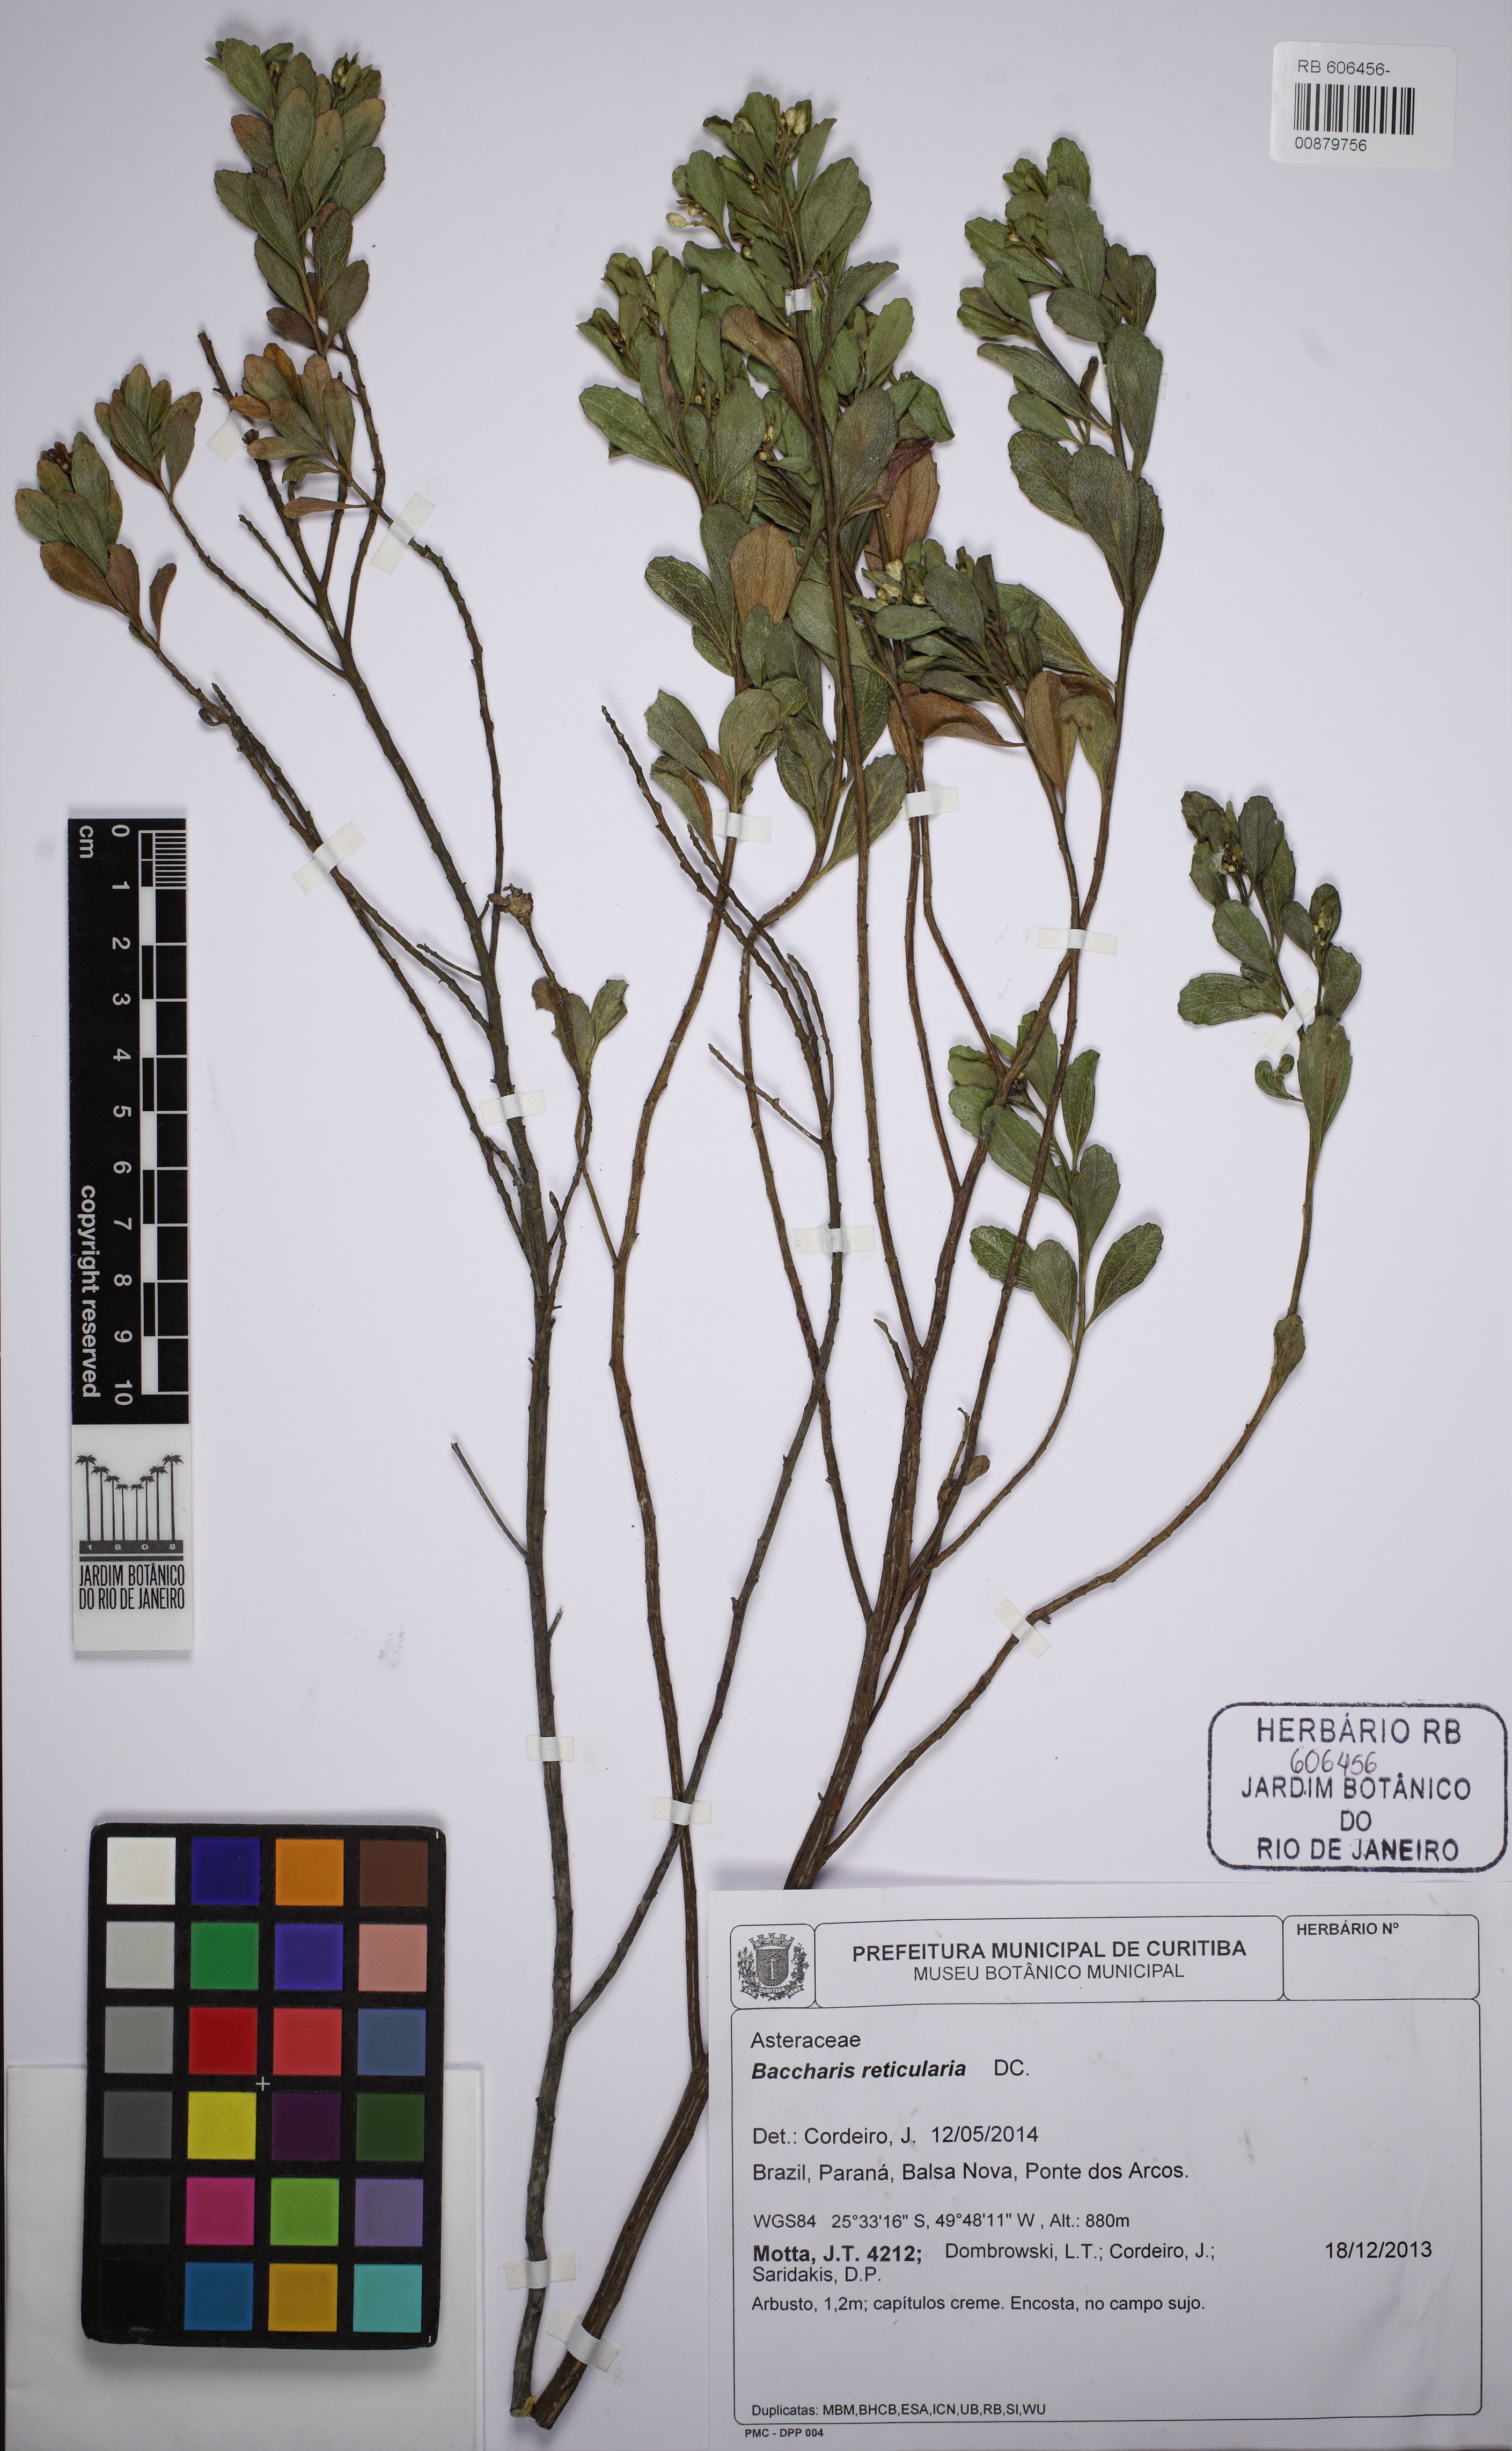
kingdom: Plantae
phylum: Tracheophyta
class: Magnoliopsida
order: Asterales
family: Asteraceae
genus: Baccharis
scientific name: Baccharis reticularia
